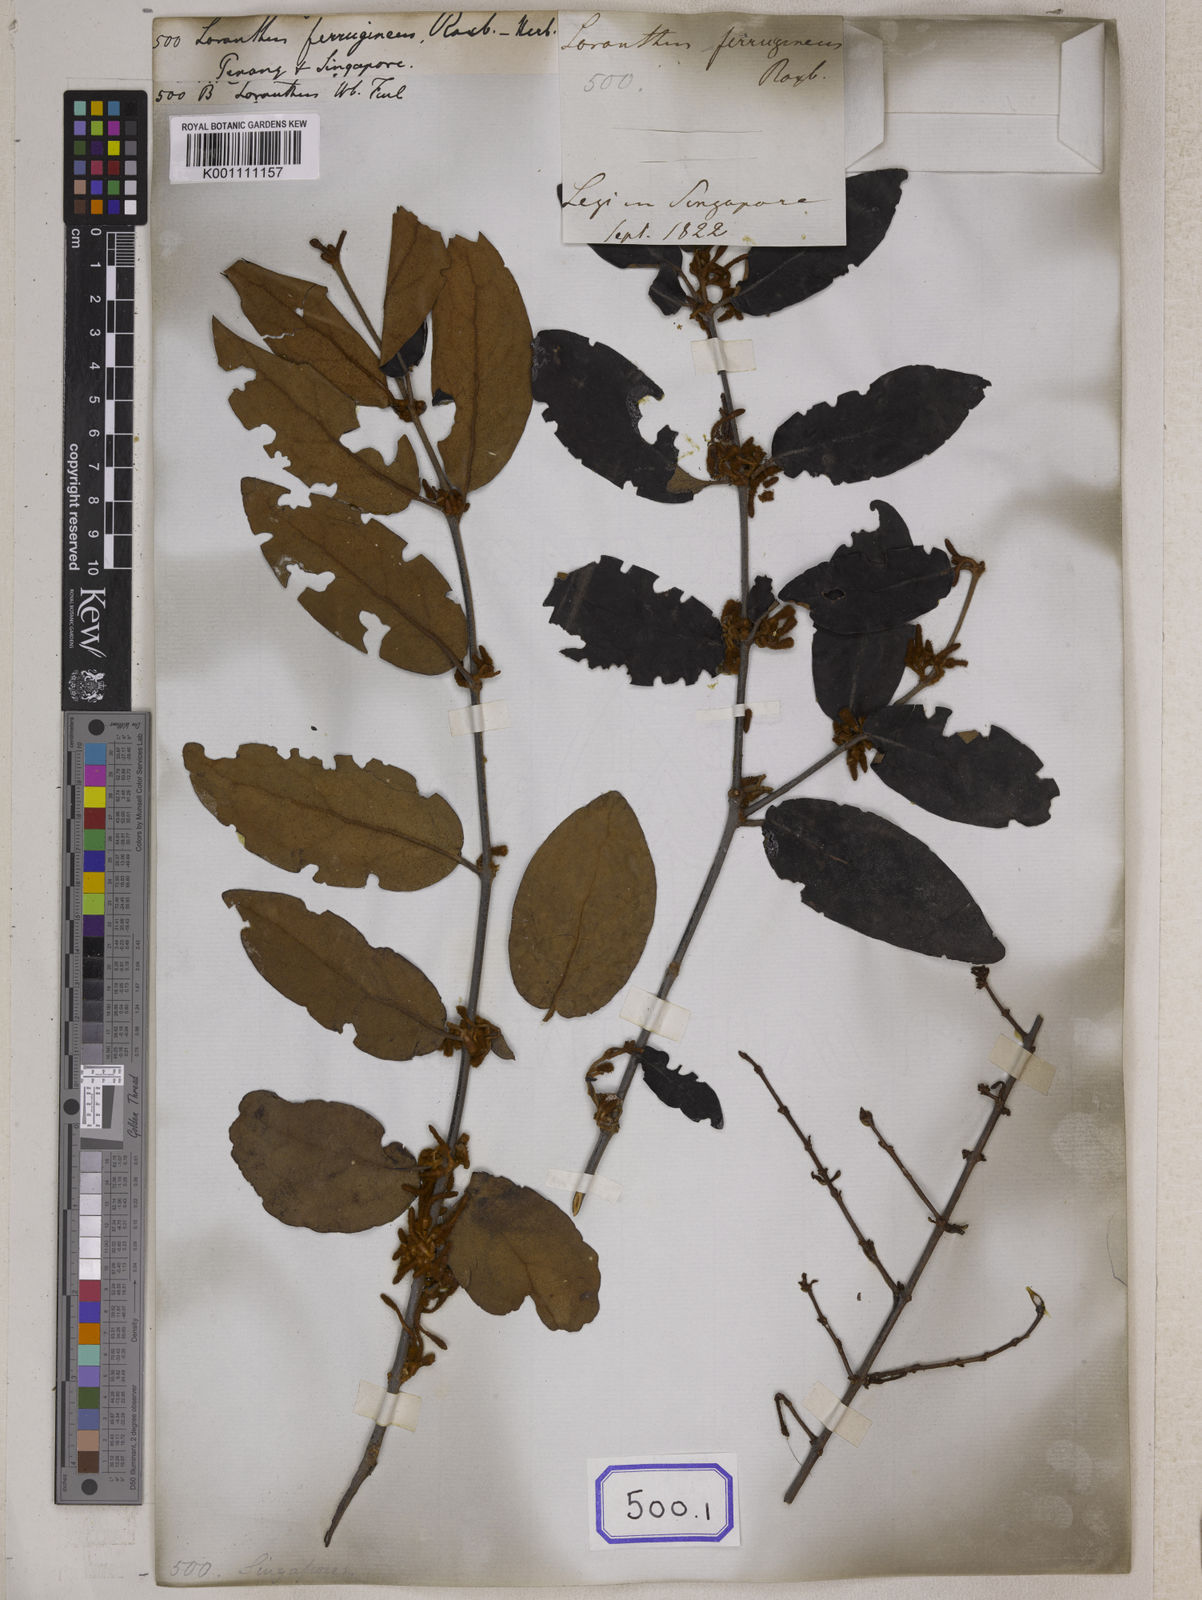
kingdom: Plantae
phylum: Tracheophyta
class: Magnoliopsida
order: Santalales
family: Loranthaceae
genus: Loranthus
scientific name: Loranthus
